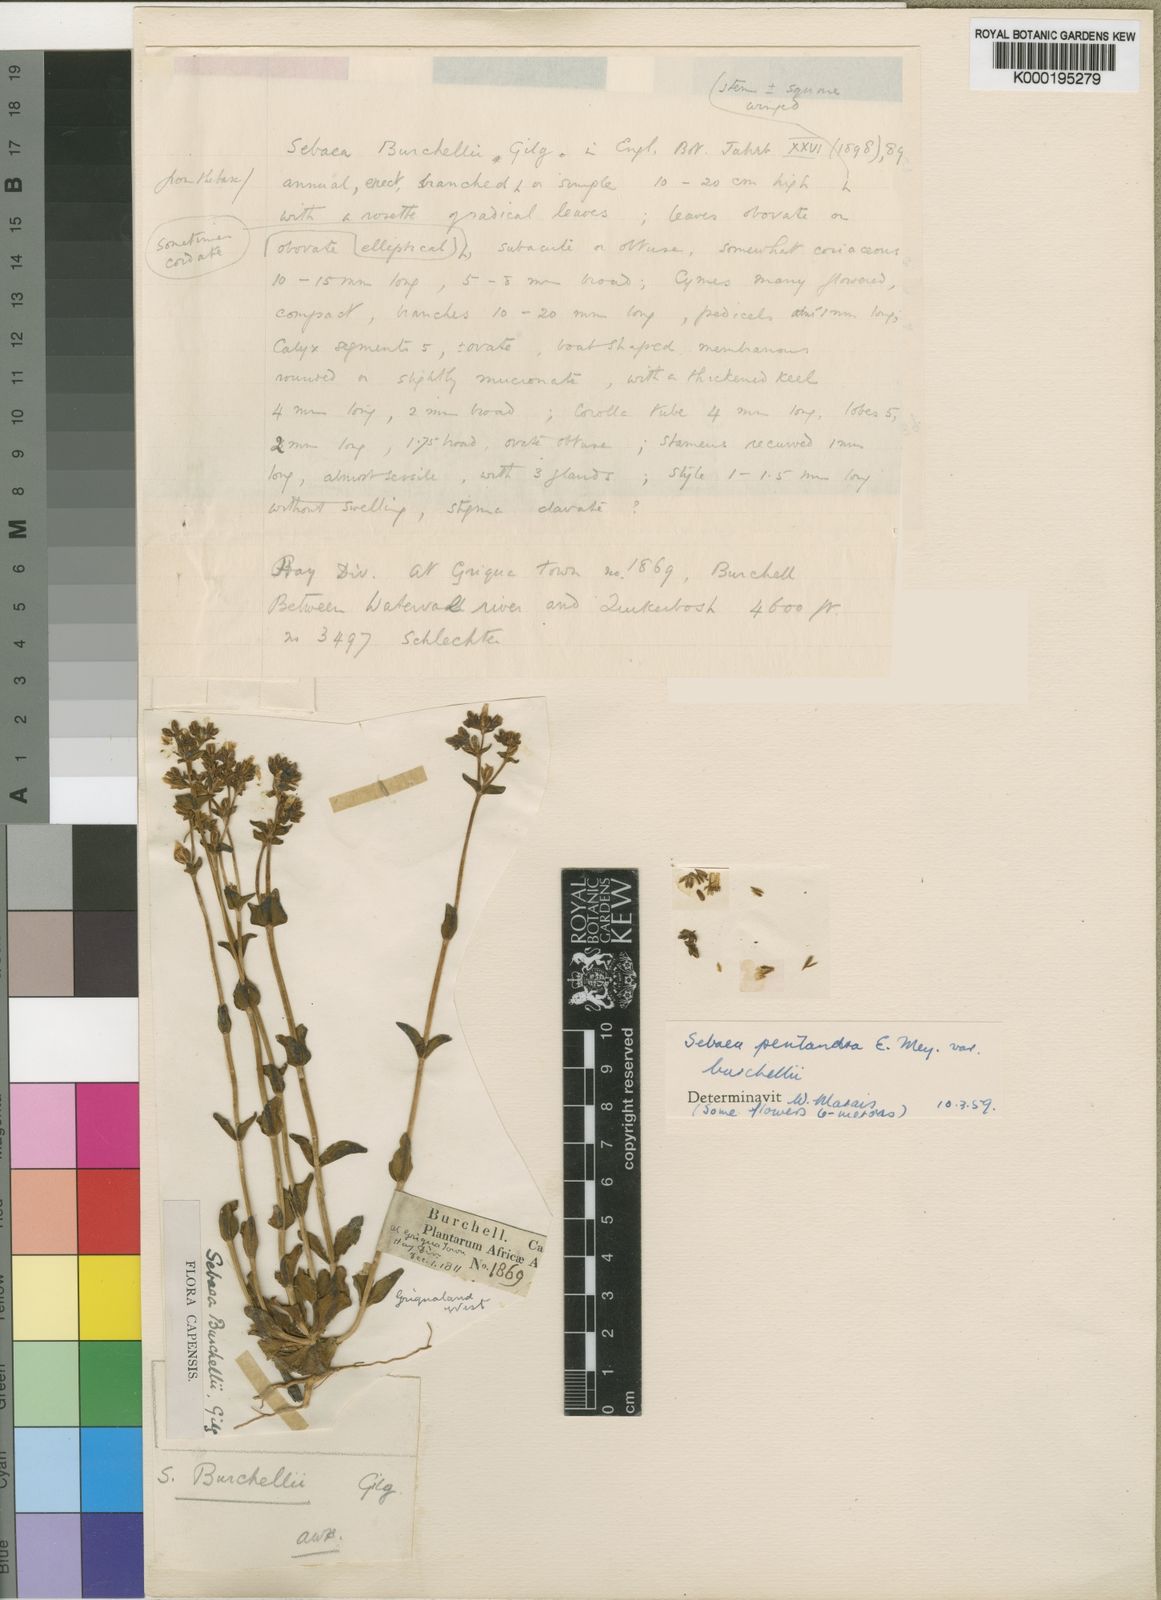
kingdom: Plantae
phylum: Tracheophyta
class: Magnoliopsida
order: Gentianales
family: Gentianaceae
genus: Sebaea
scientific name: Sebaea pentandra
